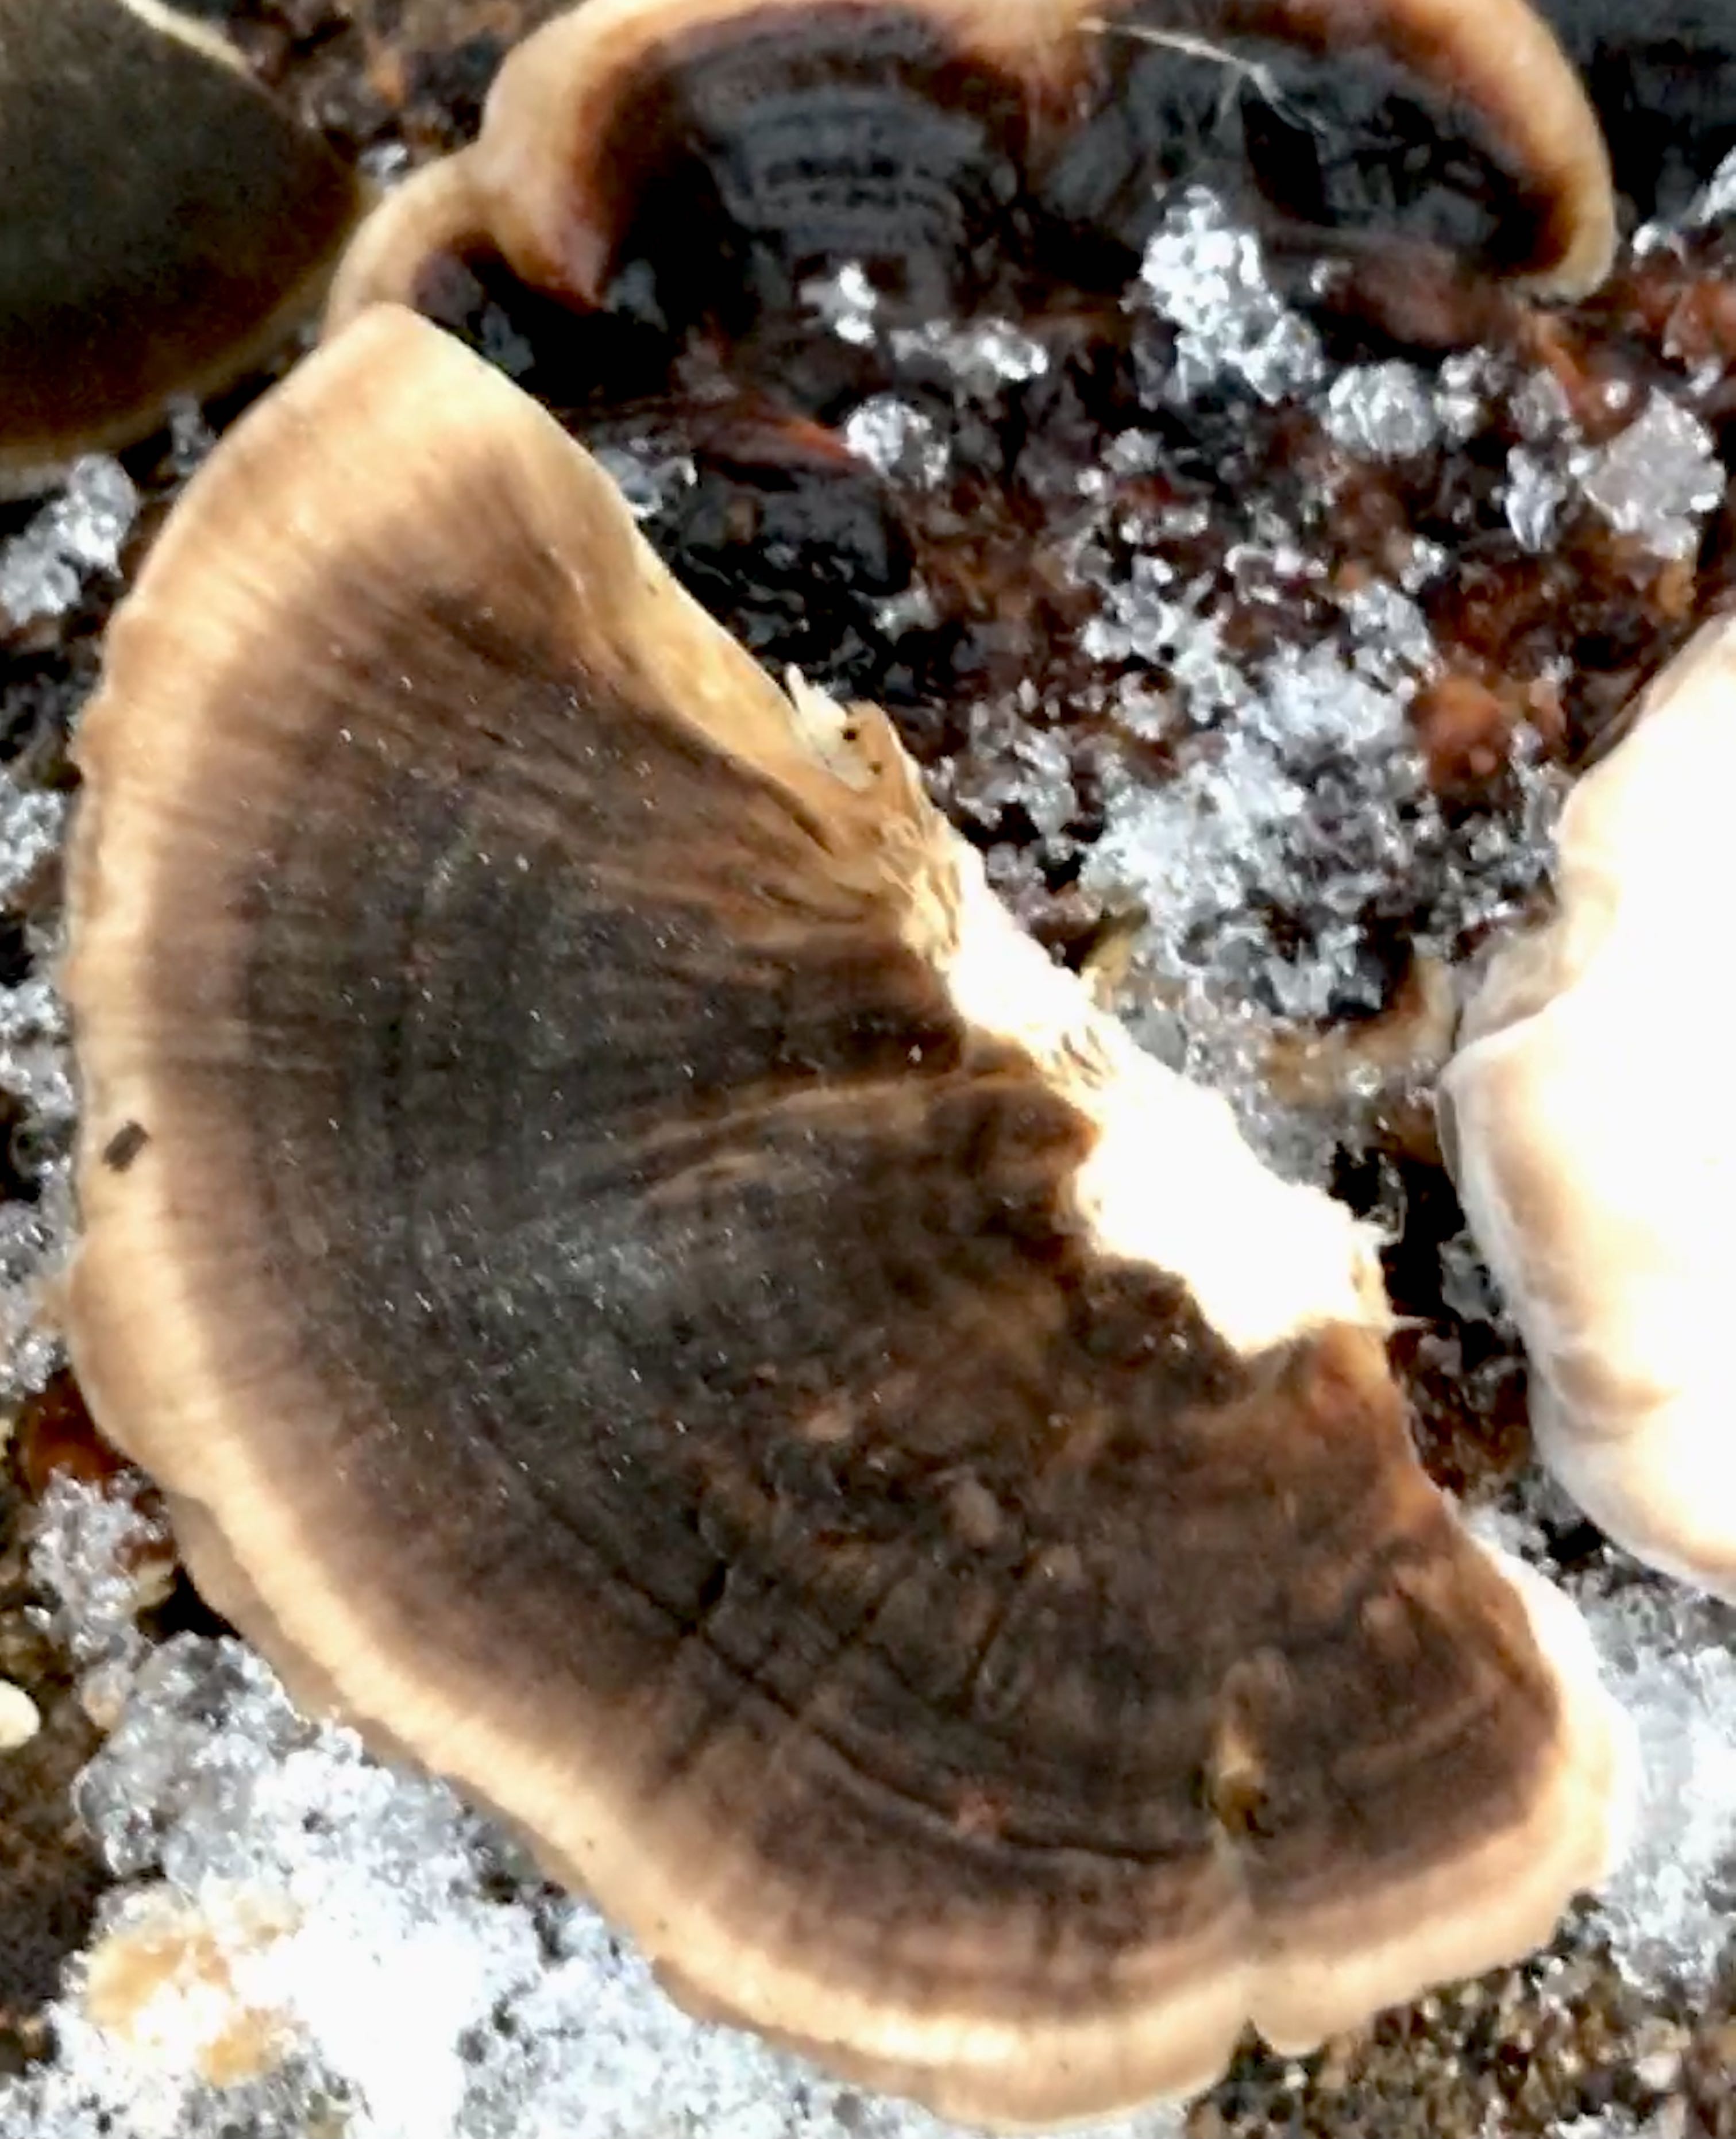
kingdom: Fungi
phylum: Basidiomycota
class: Agaricomycetes
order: Polyporales
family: Polyporaceae
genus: Trametes
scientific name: Trametes versicolor
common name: broget læderporesvamp
